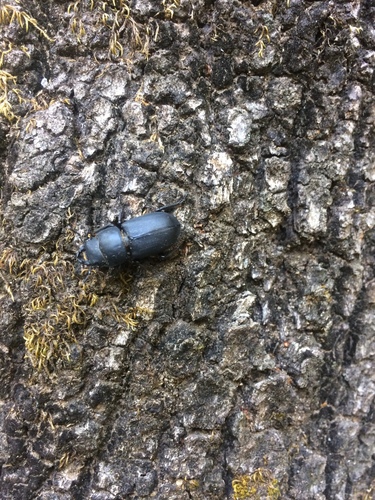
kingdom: Animalia
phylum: Arthropoda
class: Insecta
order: Coleoptera
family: Lucanidae
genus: Dorcus
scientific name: Dorcus parallelipipedus
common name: Lesser stag beetle
